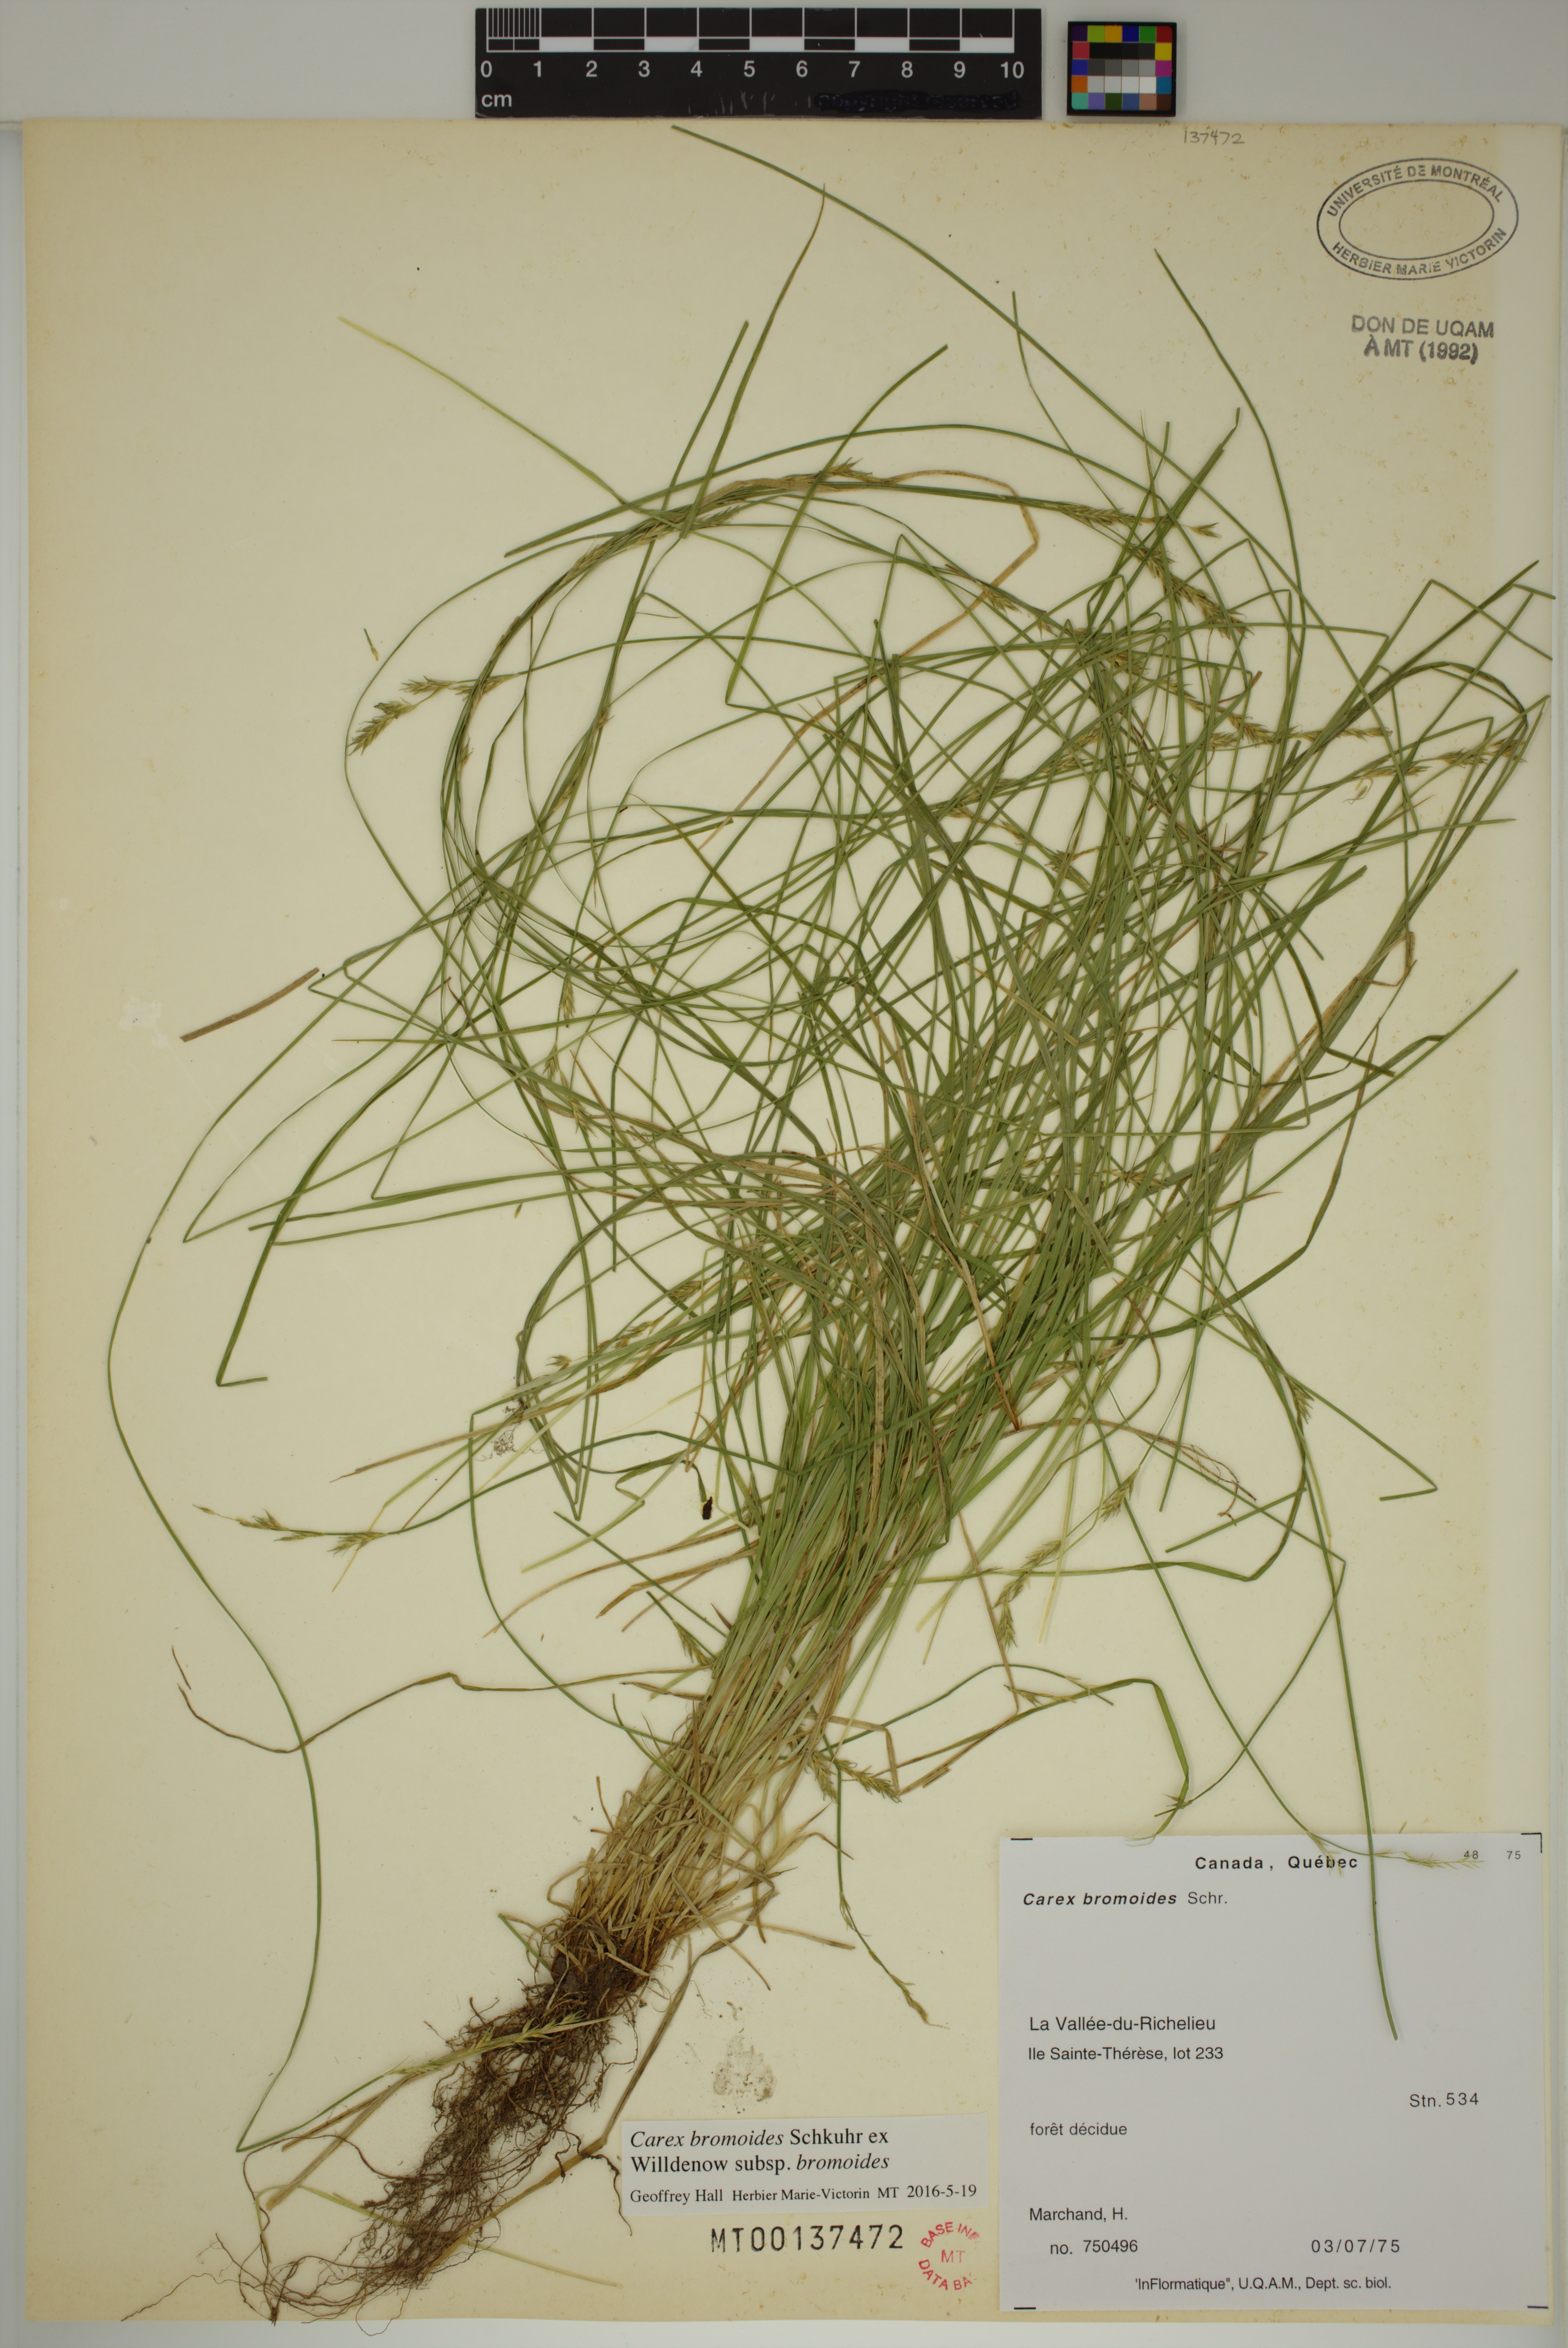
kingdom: Plantae
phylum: Tracheophyta
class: Liliopsida
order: Poales
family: Cyperaceae
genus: Carex
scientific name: Carex bromoides
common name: Brome hummock sedge
